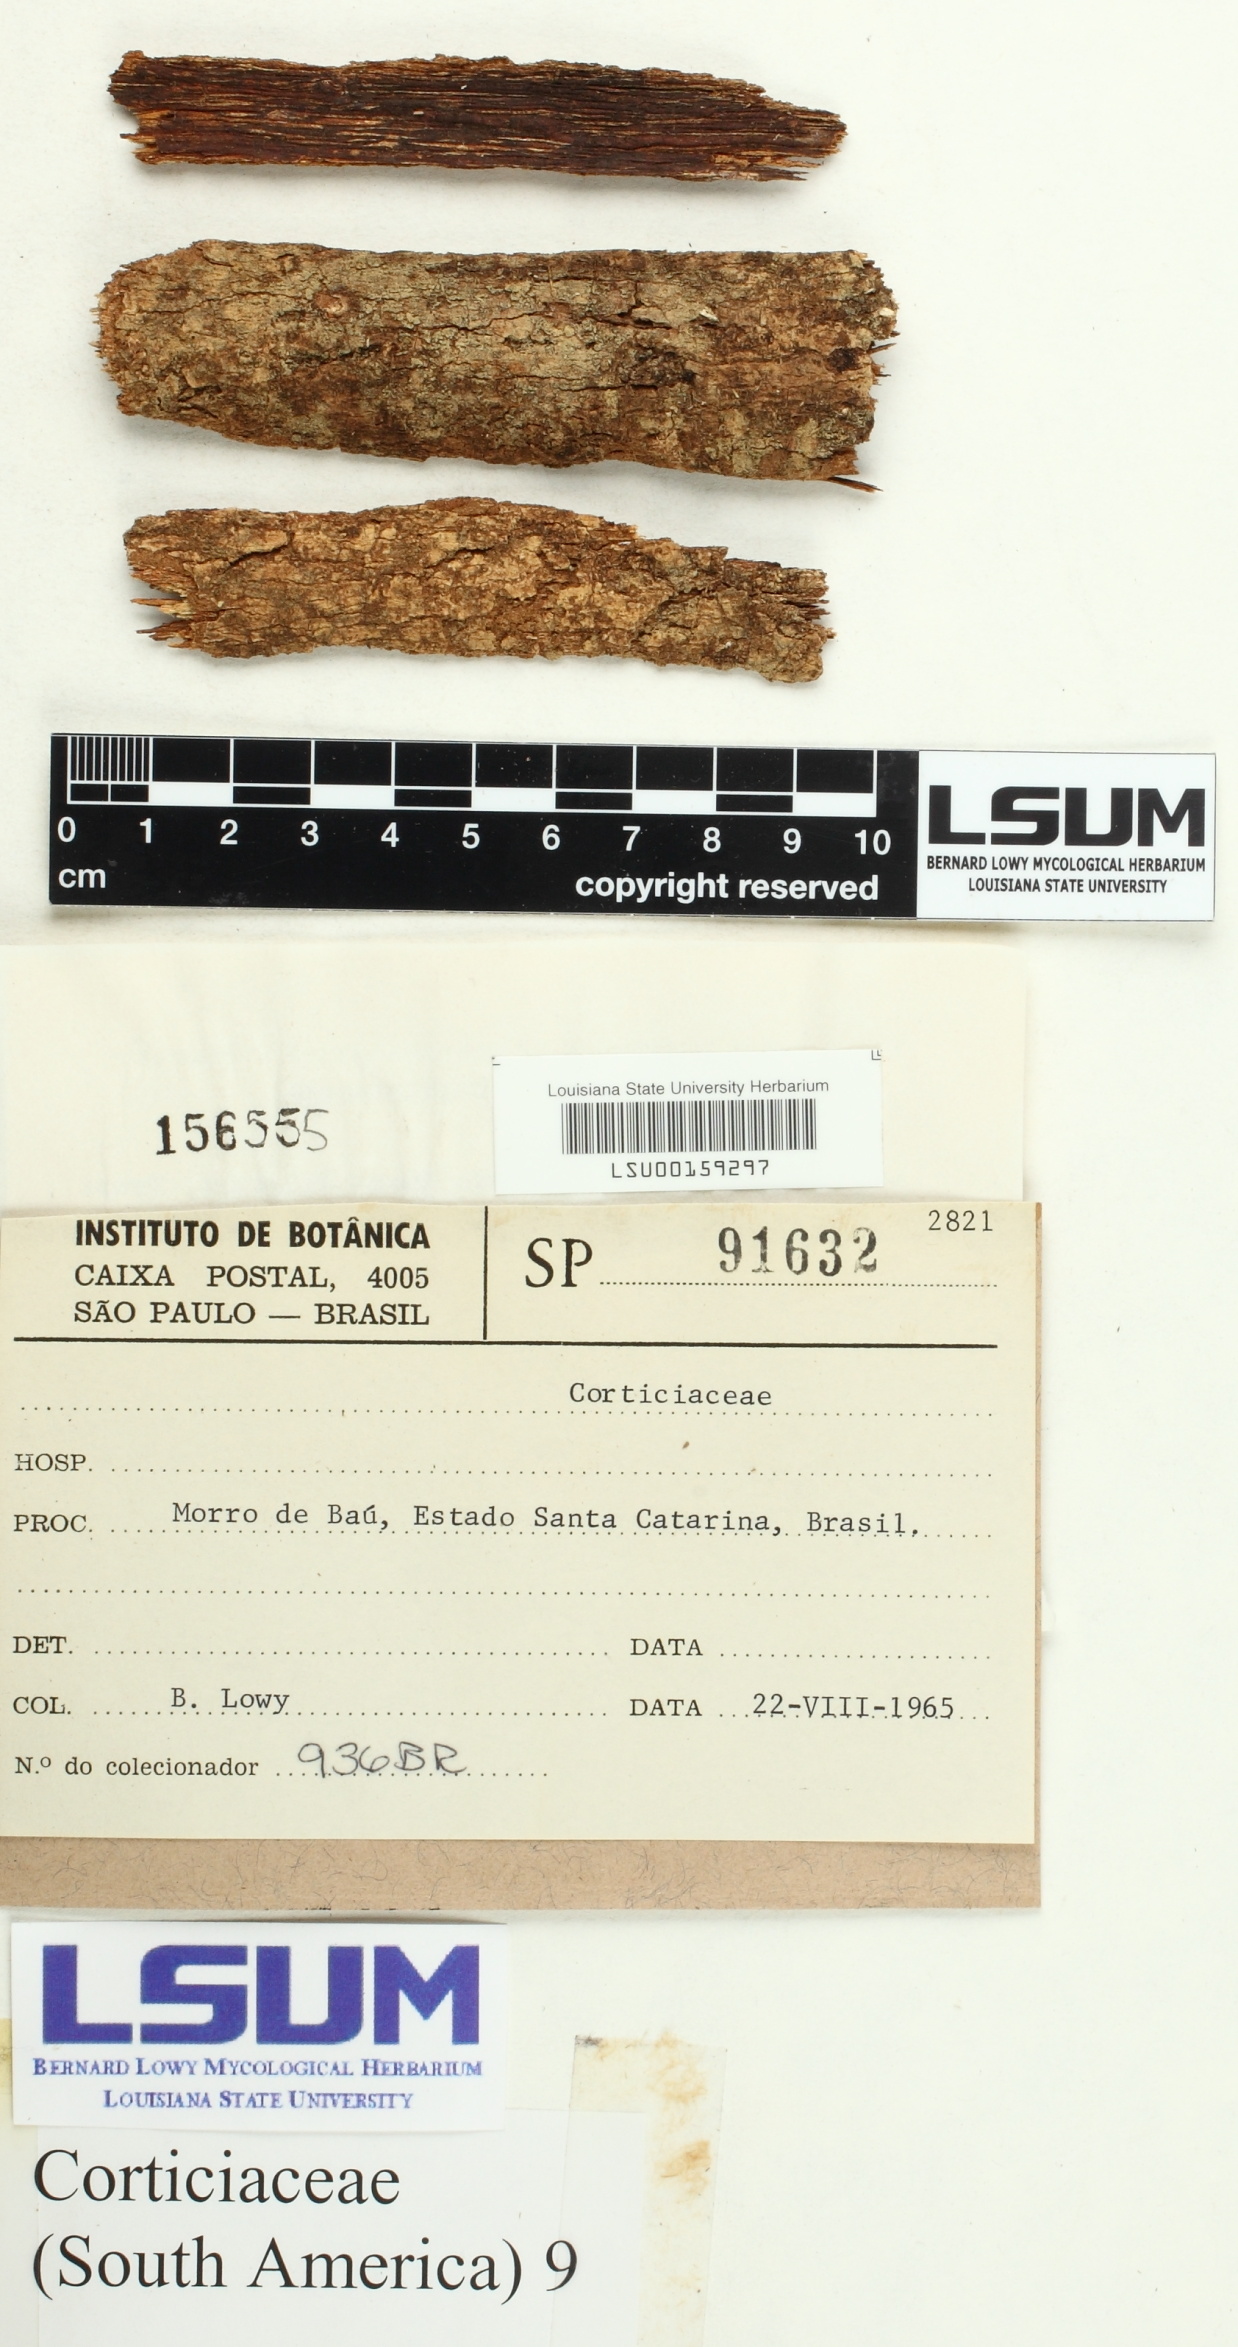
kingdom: Fungi
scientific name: Fungi
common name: Fungi
